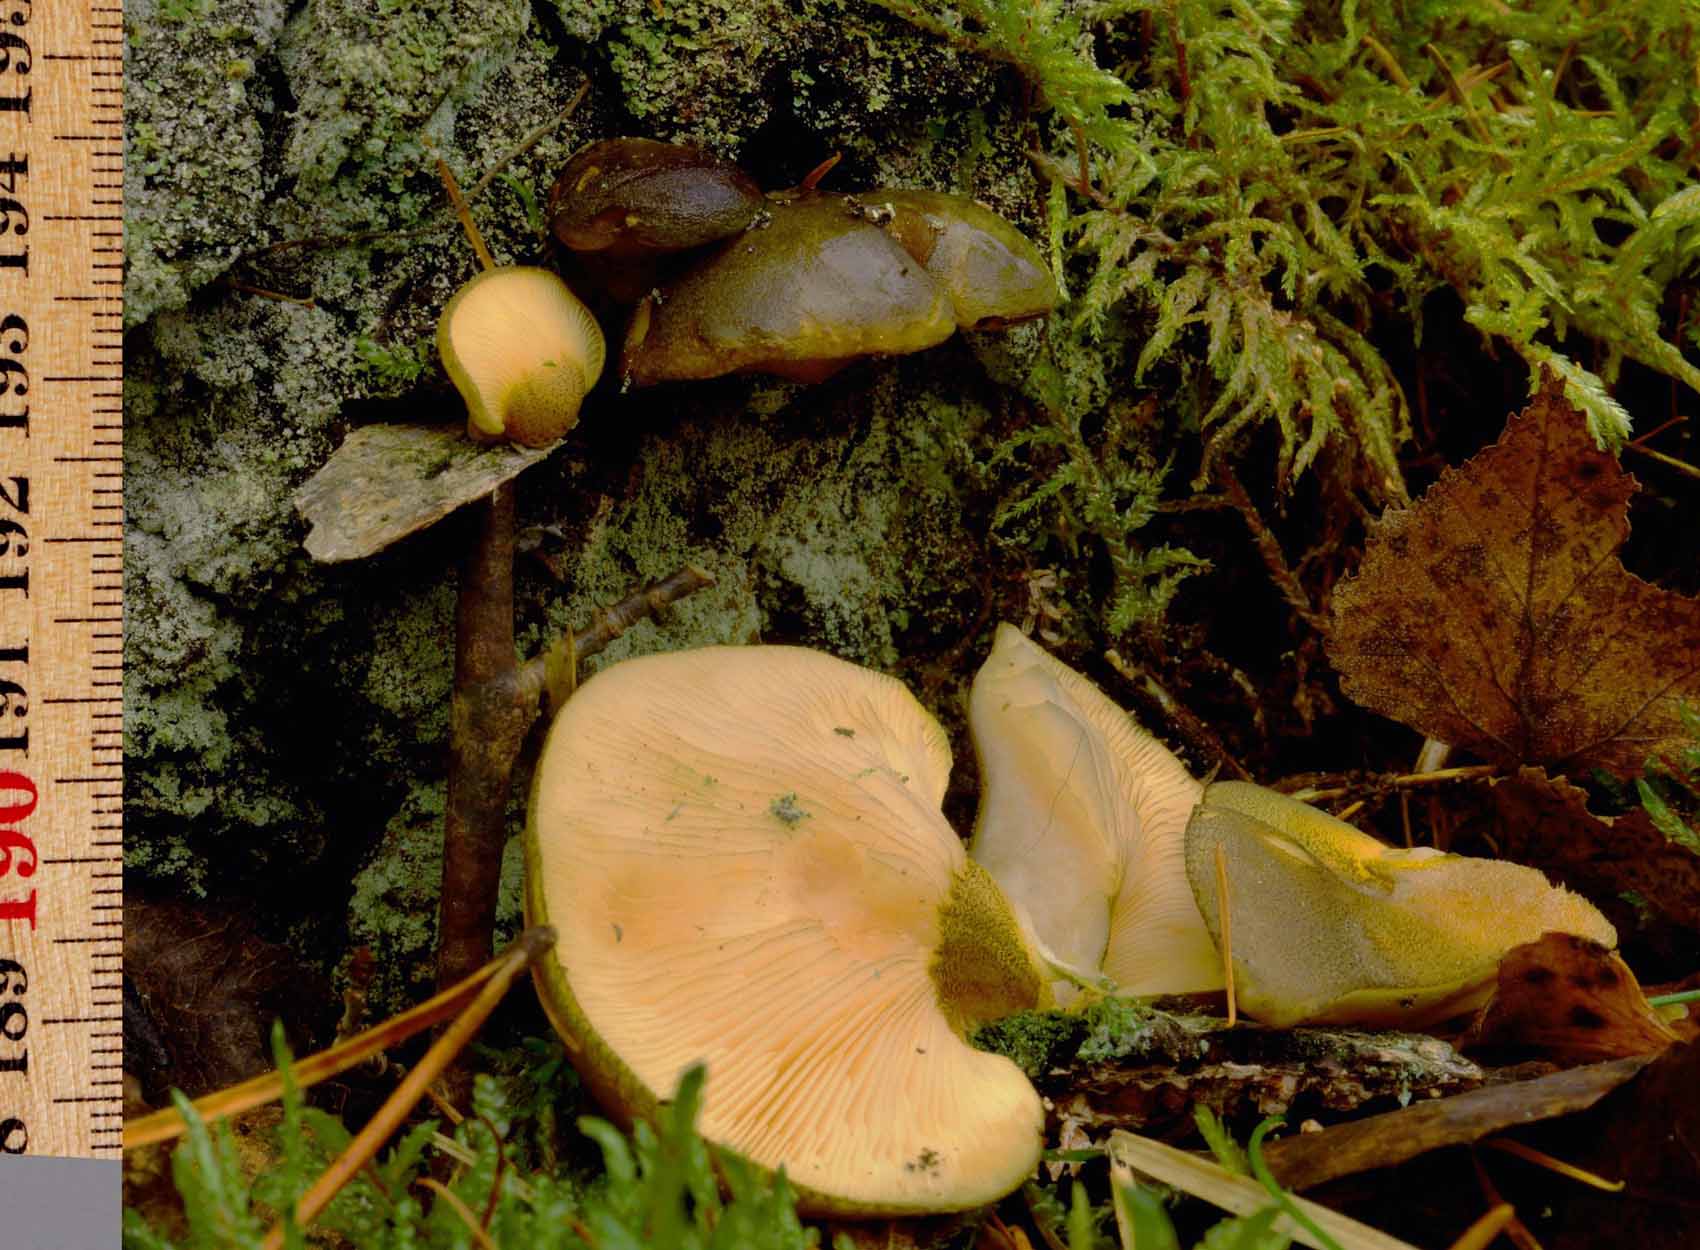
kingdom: Fungi
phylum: Basidiomycota
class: Agaricomycetes
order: Agaricales
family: Sarcomyxaceae
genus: Sarcomyxa
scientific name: Sarcomyxa serotina
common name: gummihat
